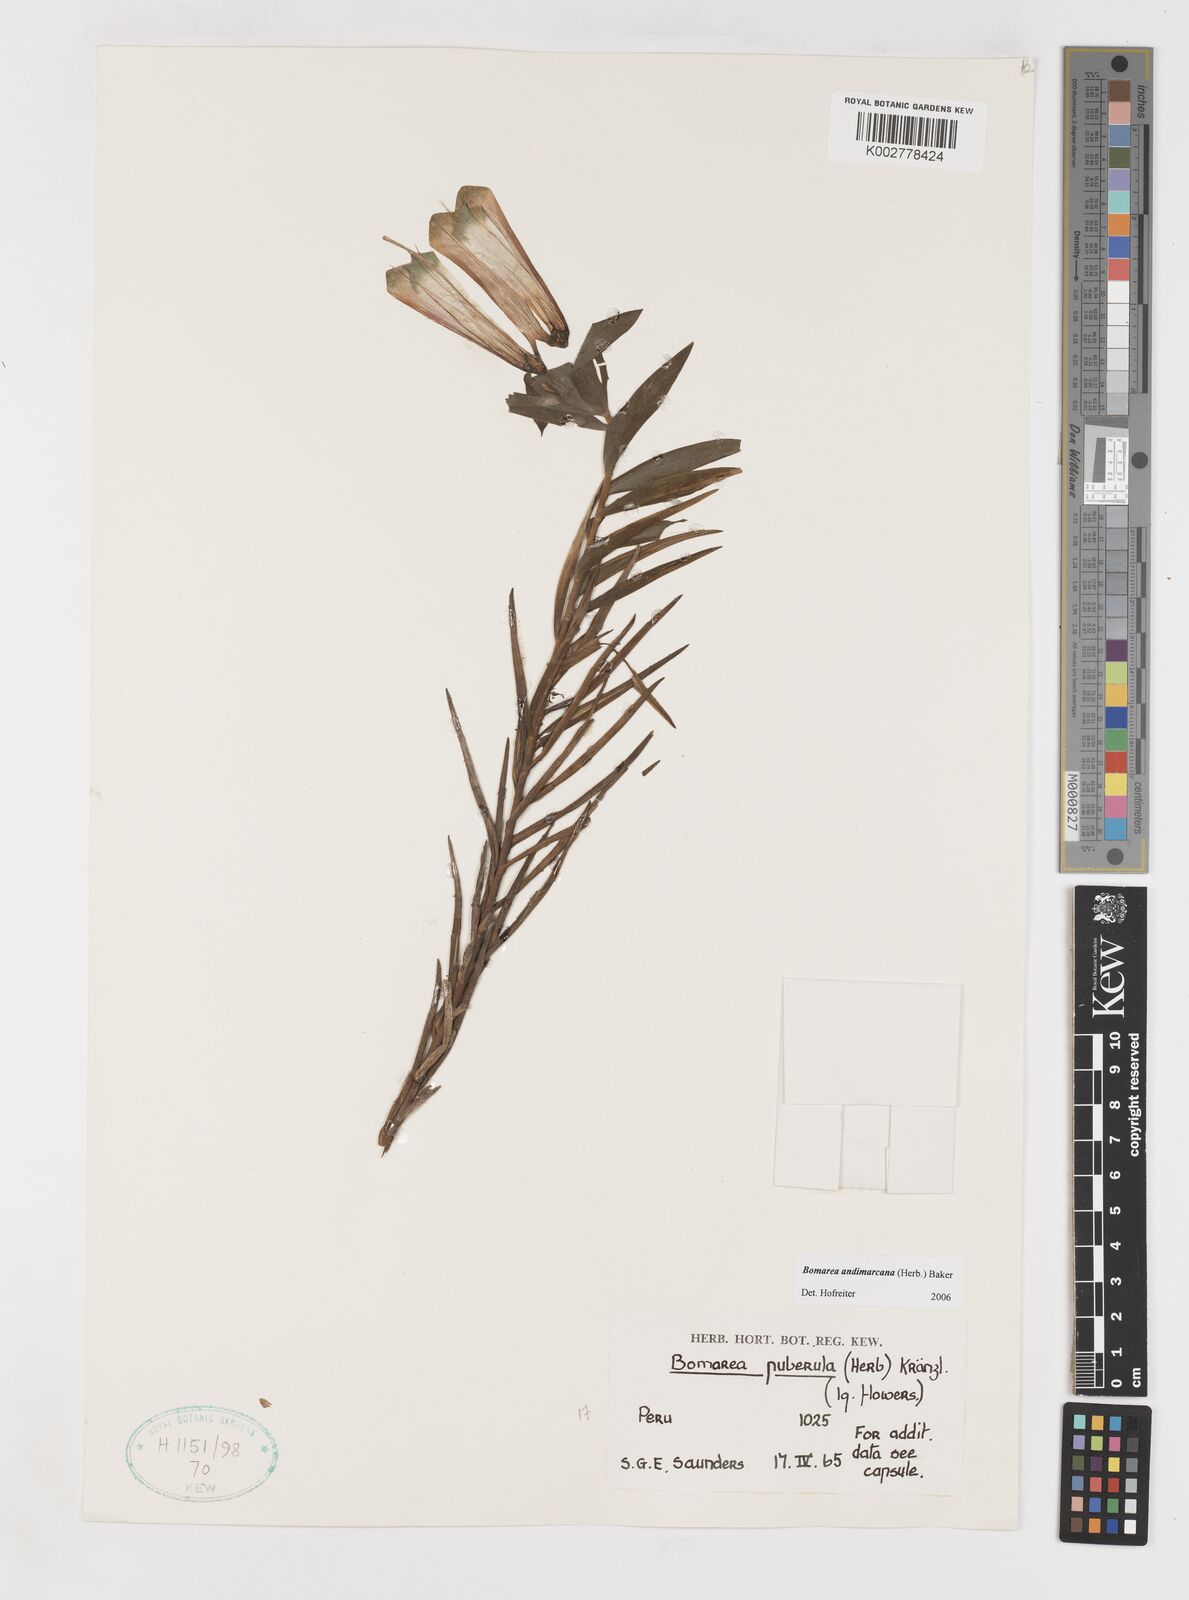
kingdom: Plantae
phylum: Tracheophyta
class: Liliopsida
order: Liliales
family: Alstroemeriaceae
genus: Bomarea
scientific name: Bomarea andimarcana
